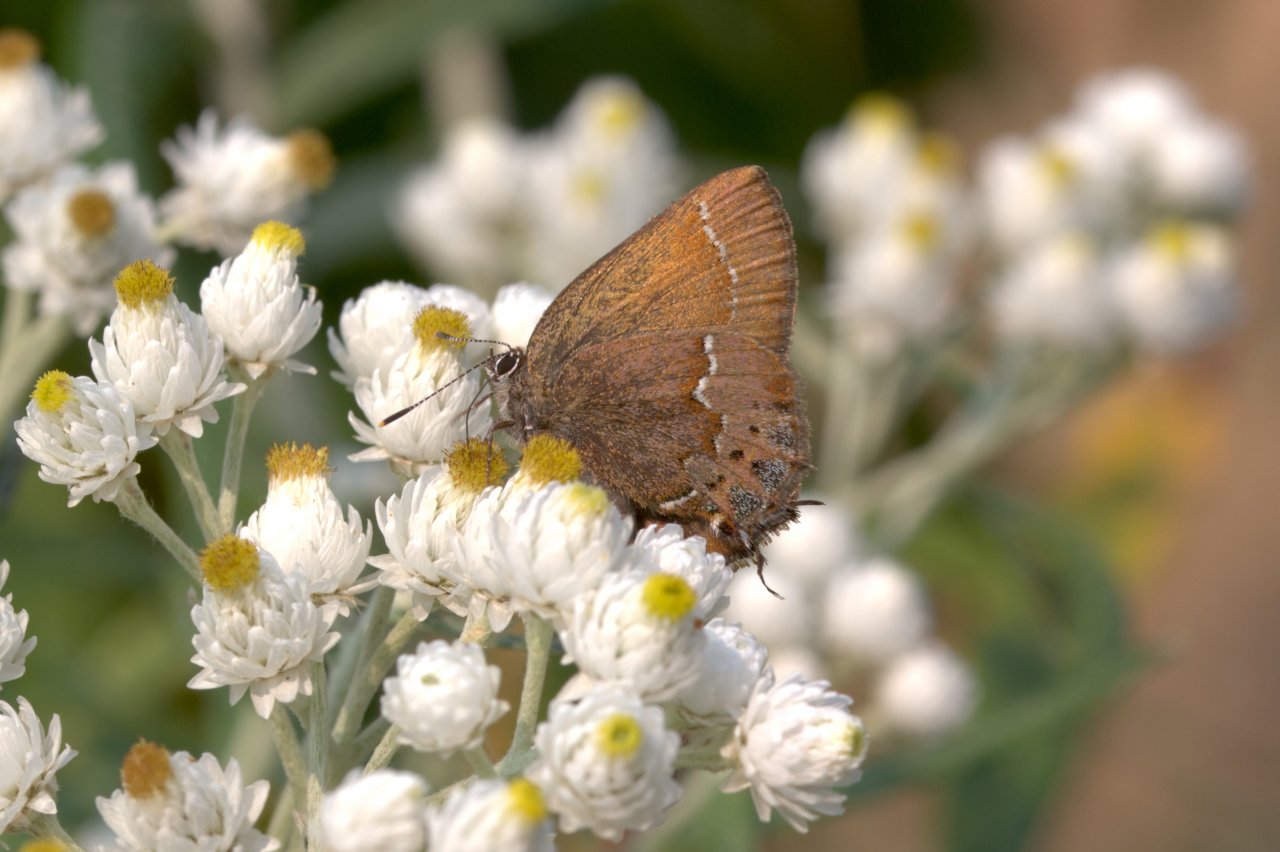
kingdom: Animalia
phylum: Arthropoda
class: Insecta
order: Lepidoptera
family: Lycaenidae
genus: Mitoura
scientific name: Mitoura gryneus
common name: Juniper Hairstreak
